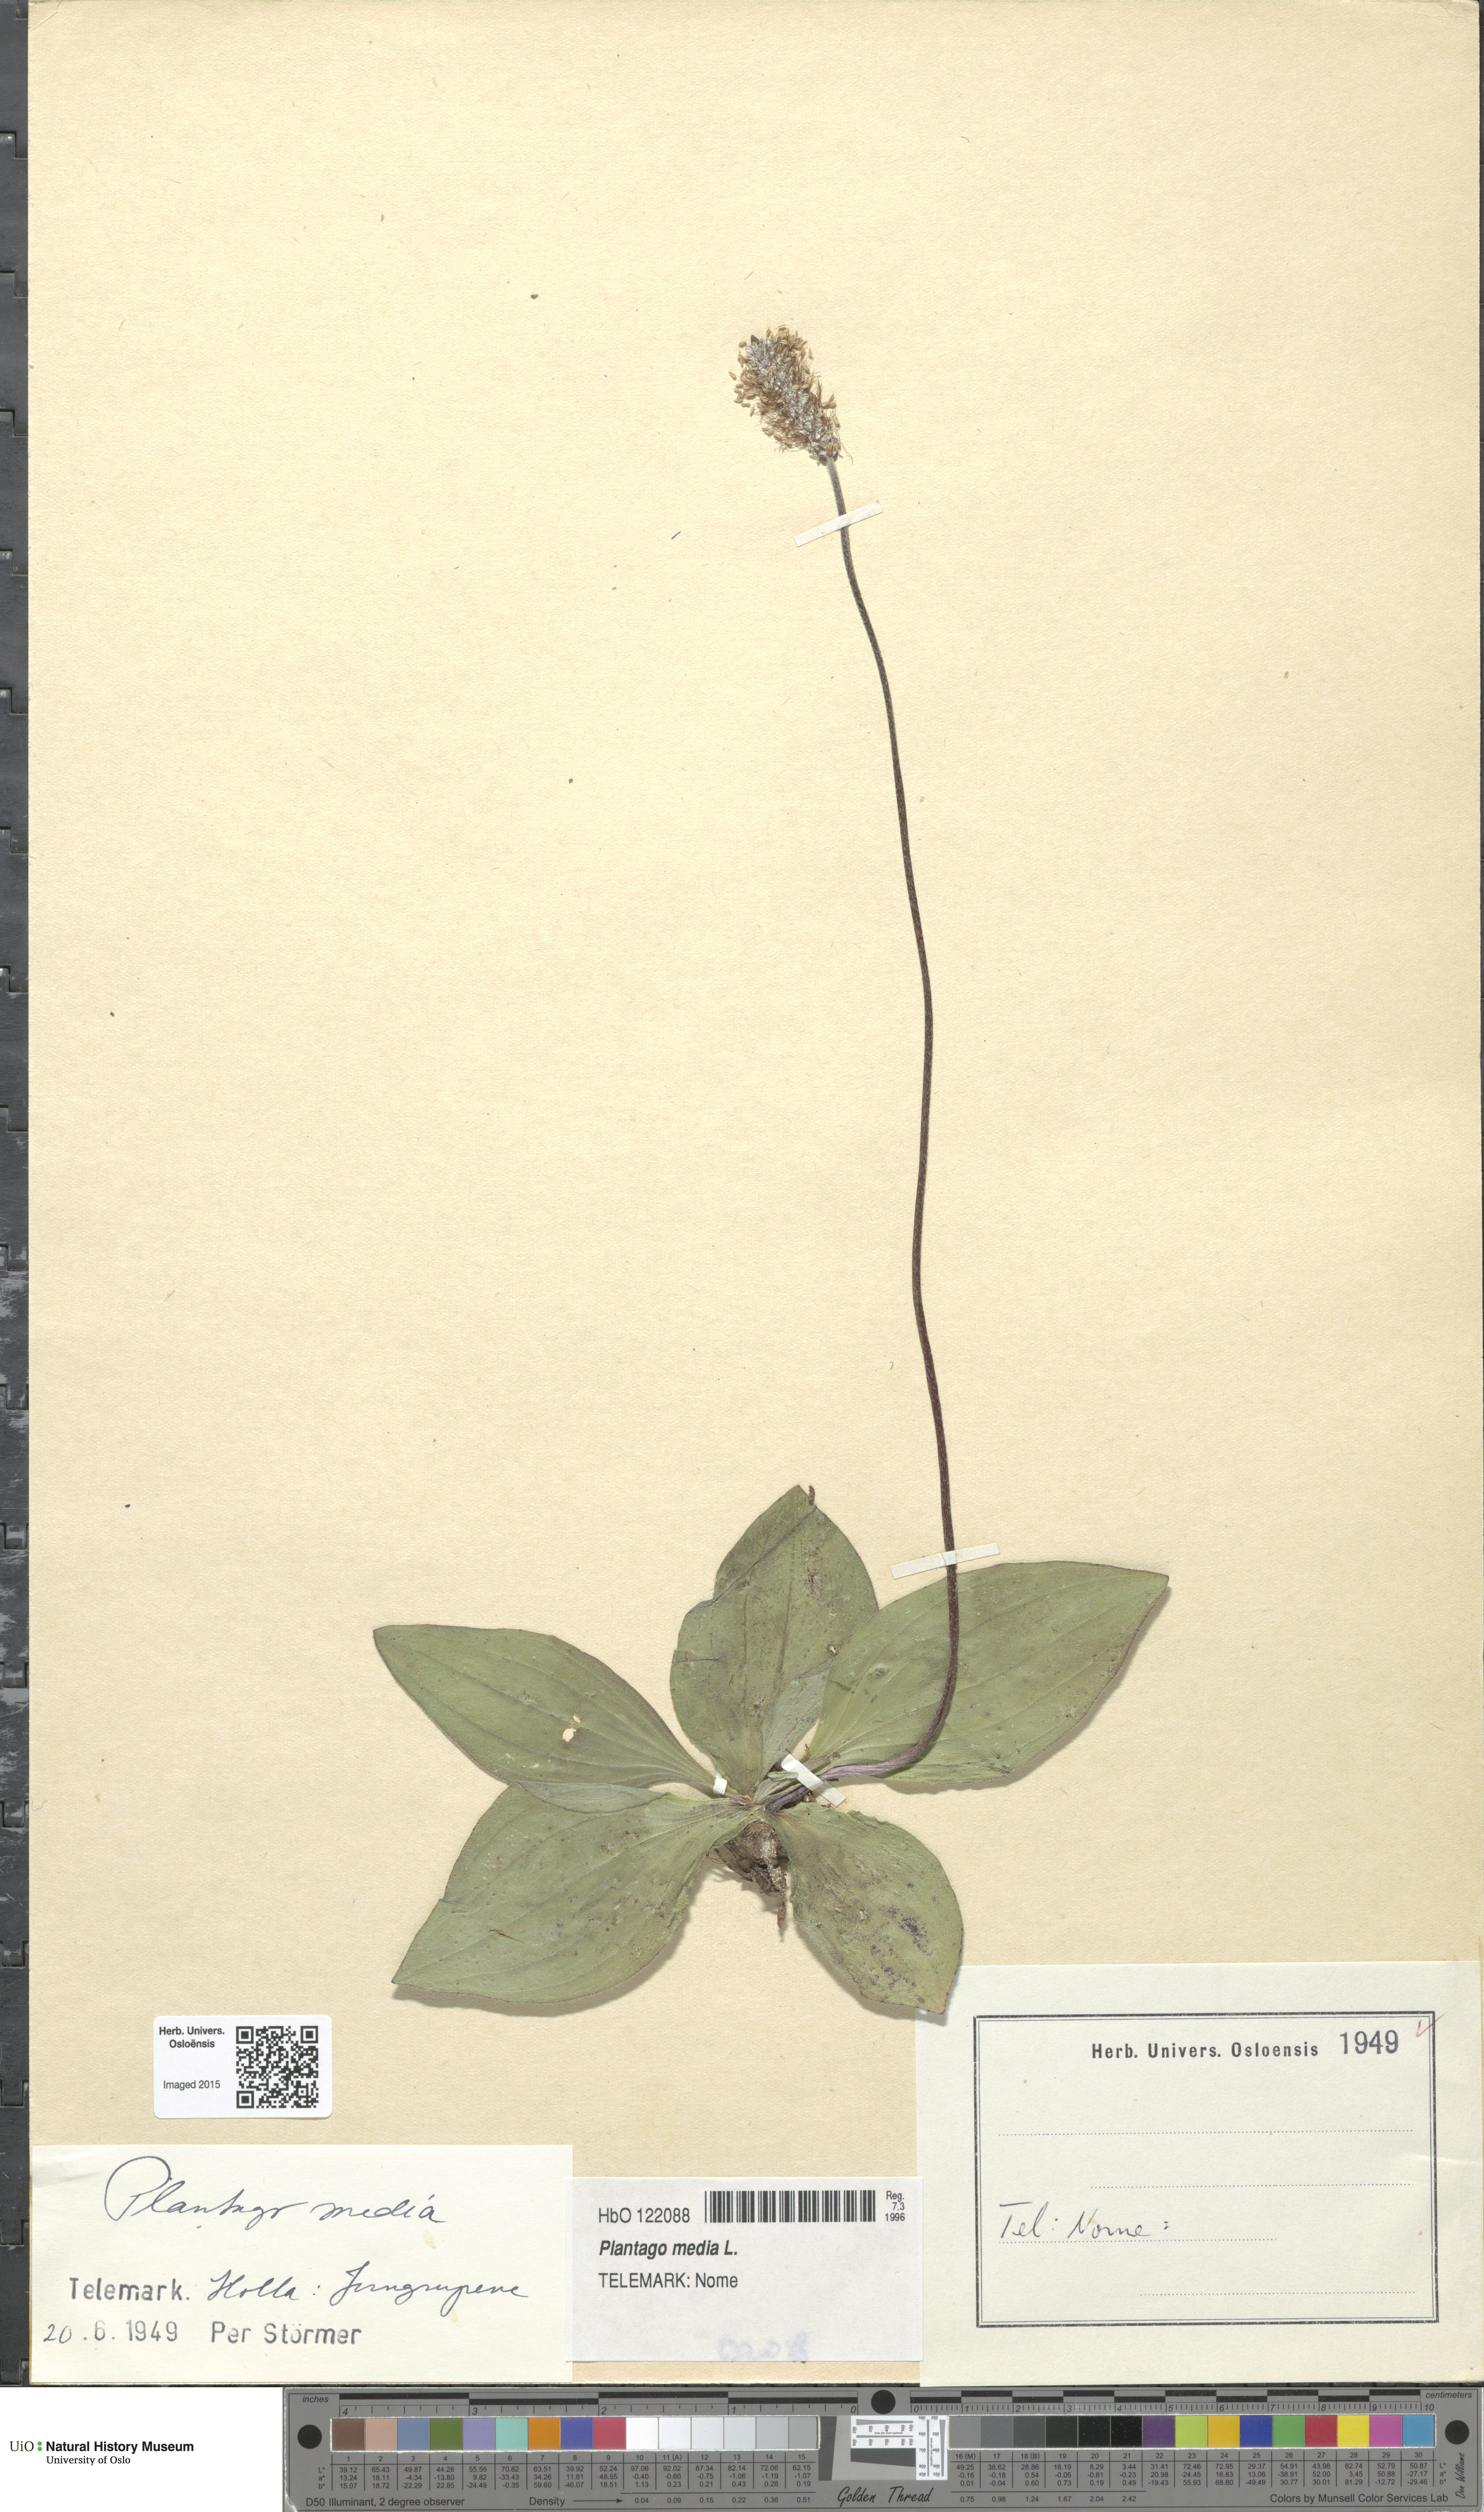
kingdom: Plantae
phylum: Tracheophyta
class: Magnoliopsida
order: Lamiales
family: Plantaginaceae
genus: Plantago
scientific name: Plantago media
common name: Hoary plantain
